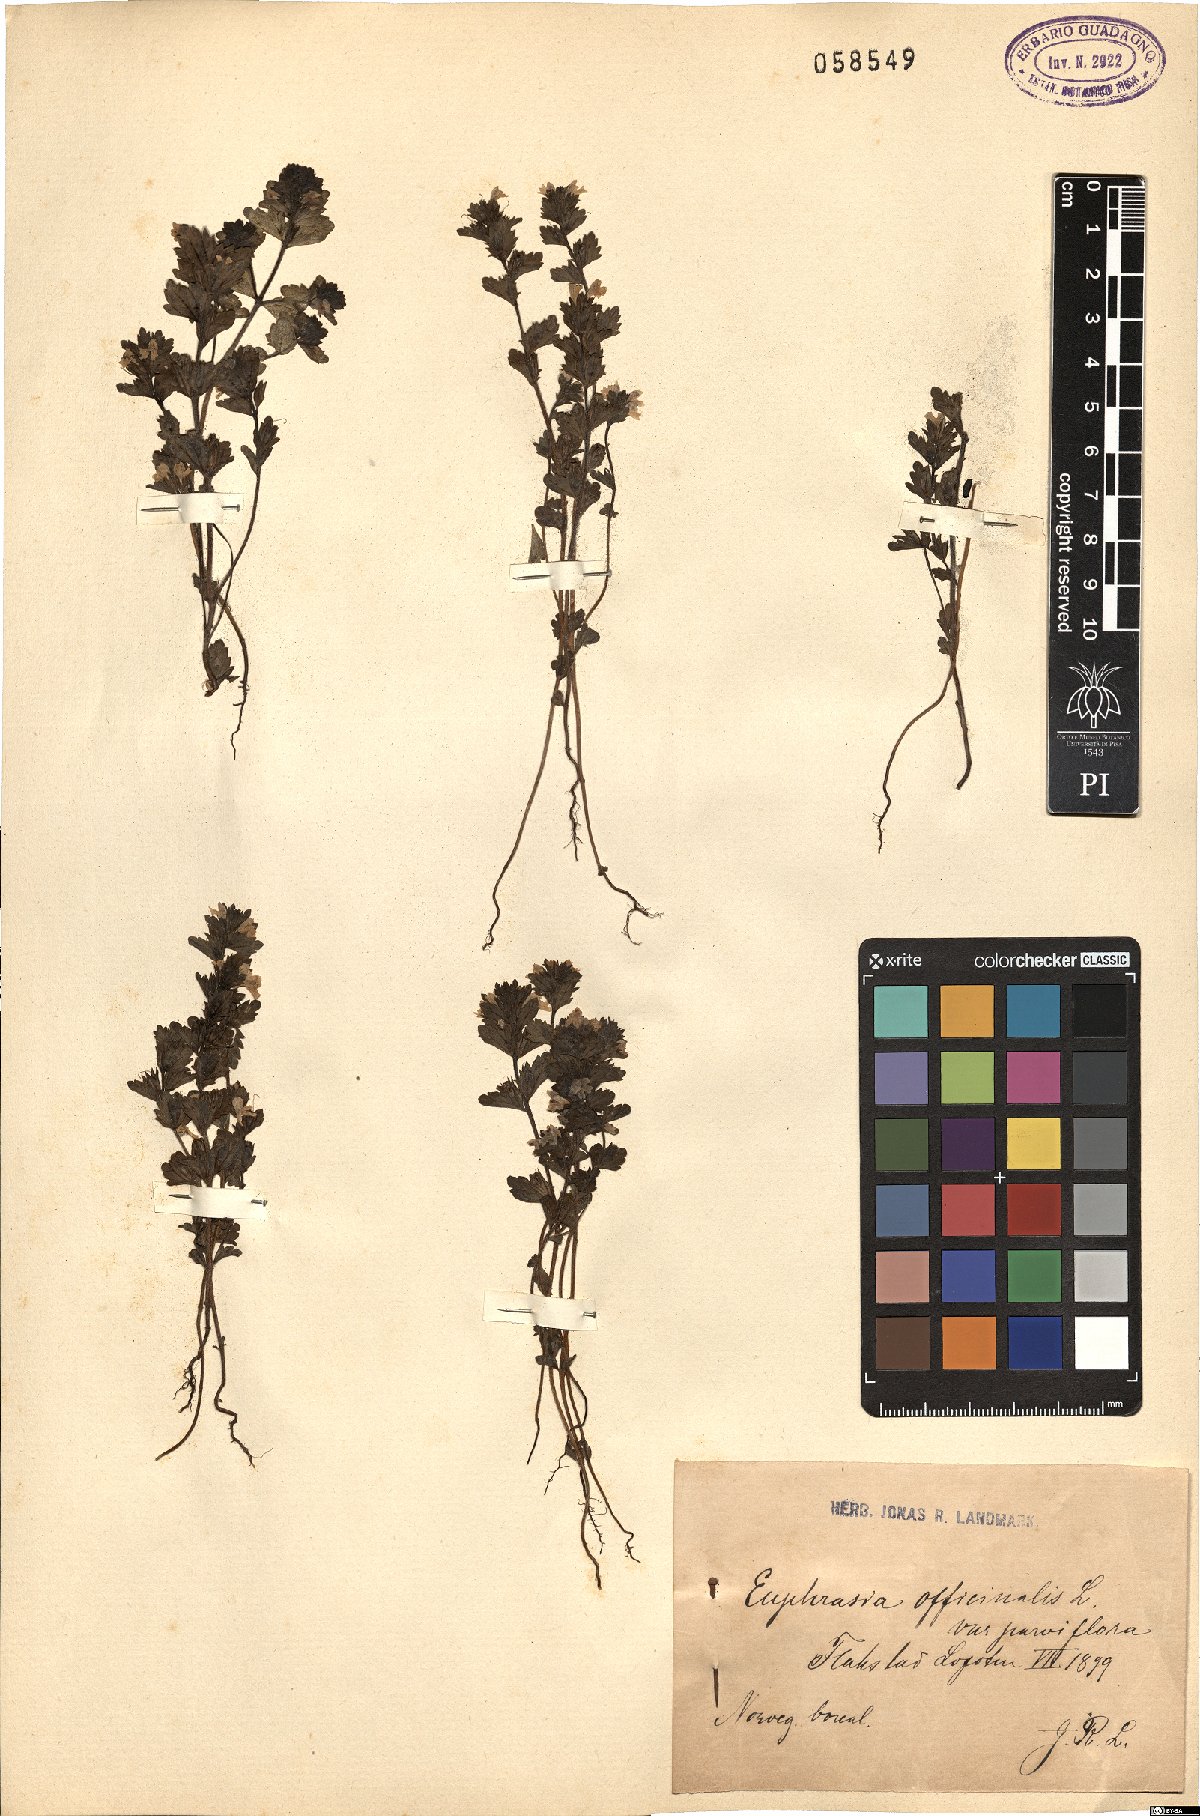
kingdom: Plantae
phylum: Tracheophyta
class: Magnoliopsida
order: Lamiales
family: Orobanchaceae
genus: Euphrasia
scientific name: Euphrasia officinalis
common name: Eyebright
